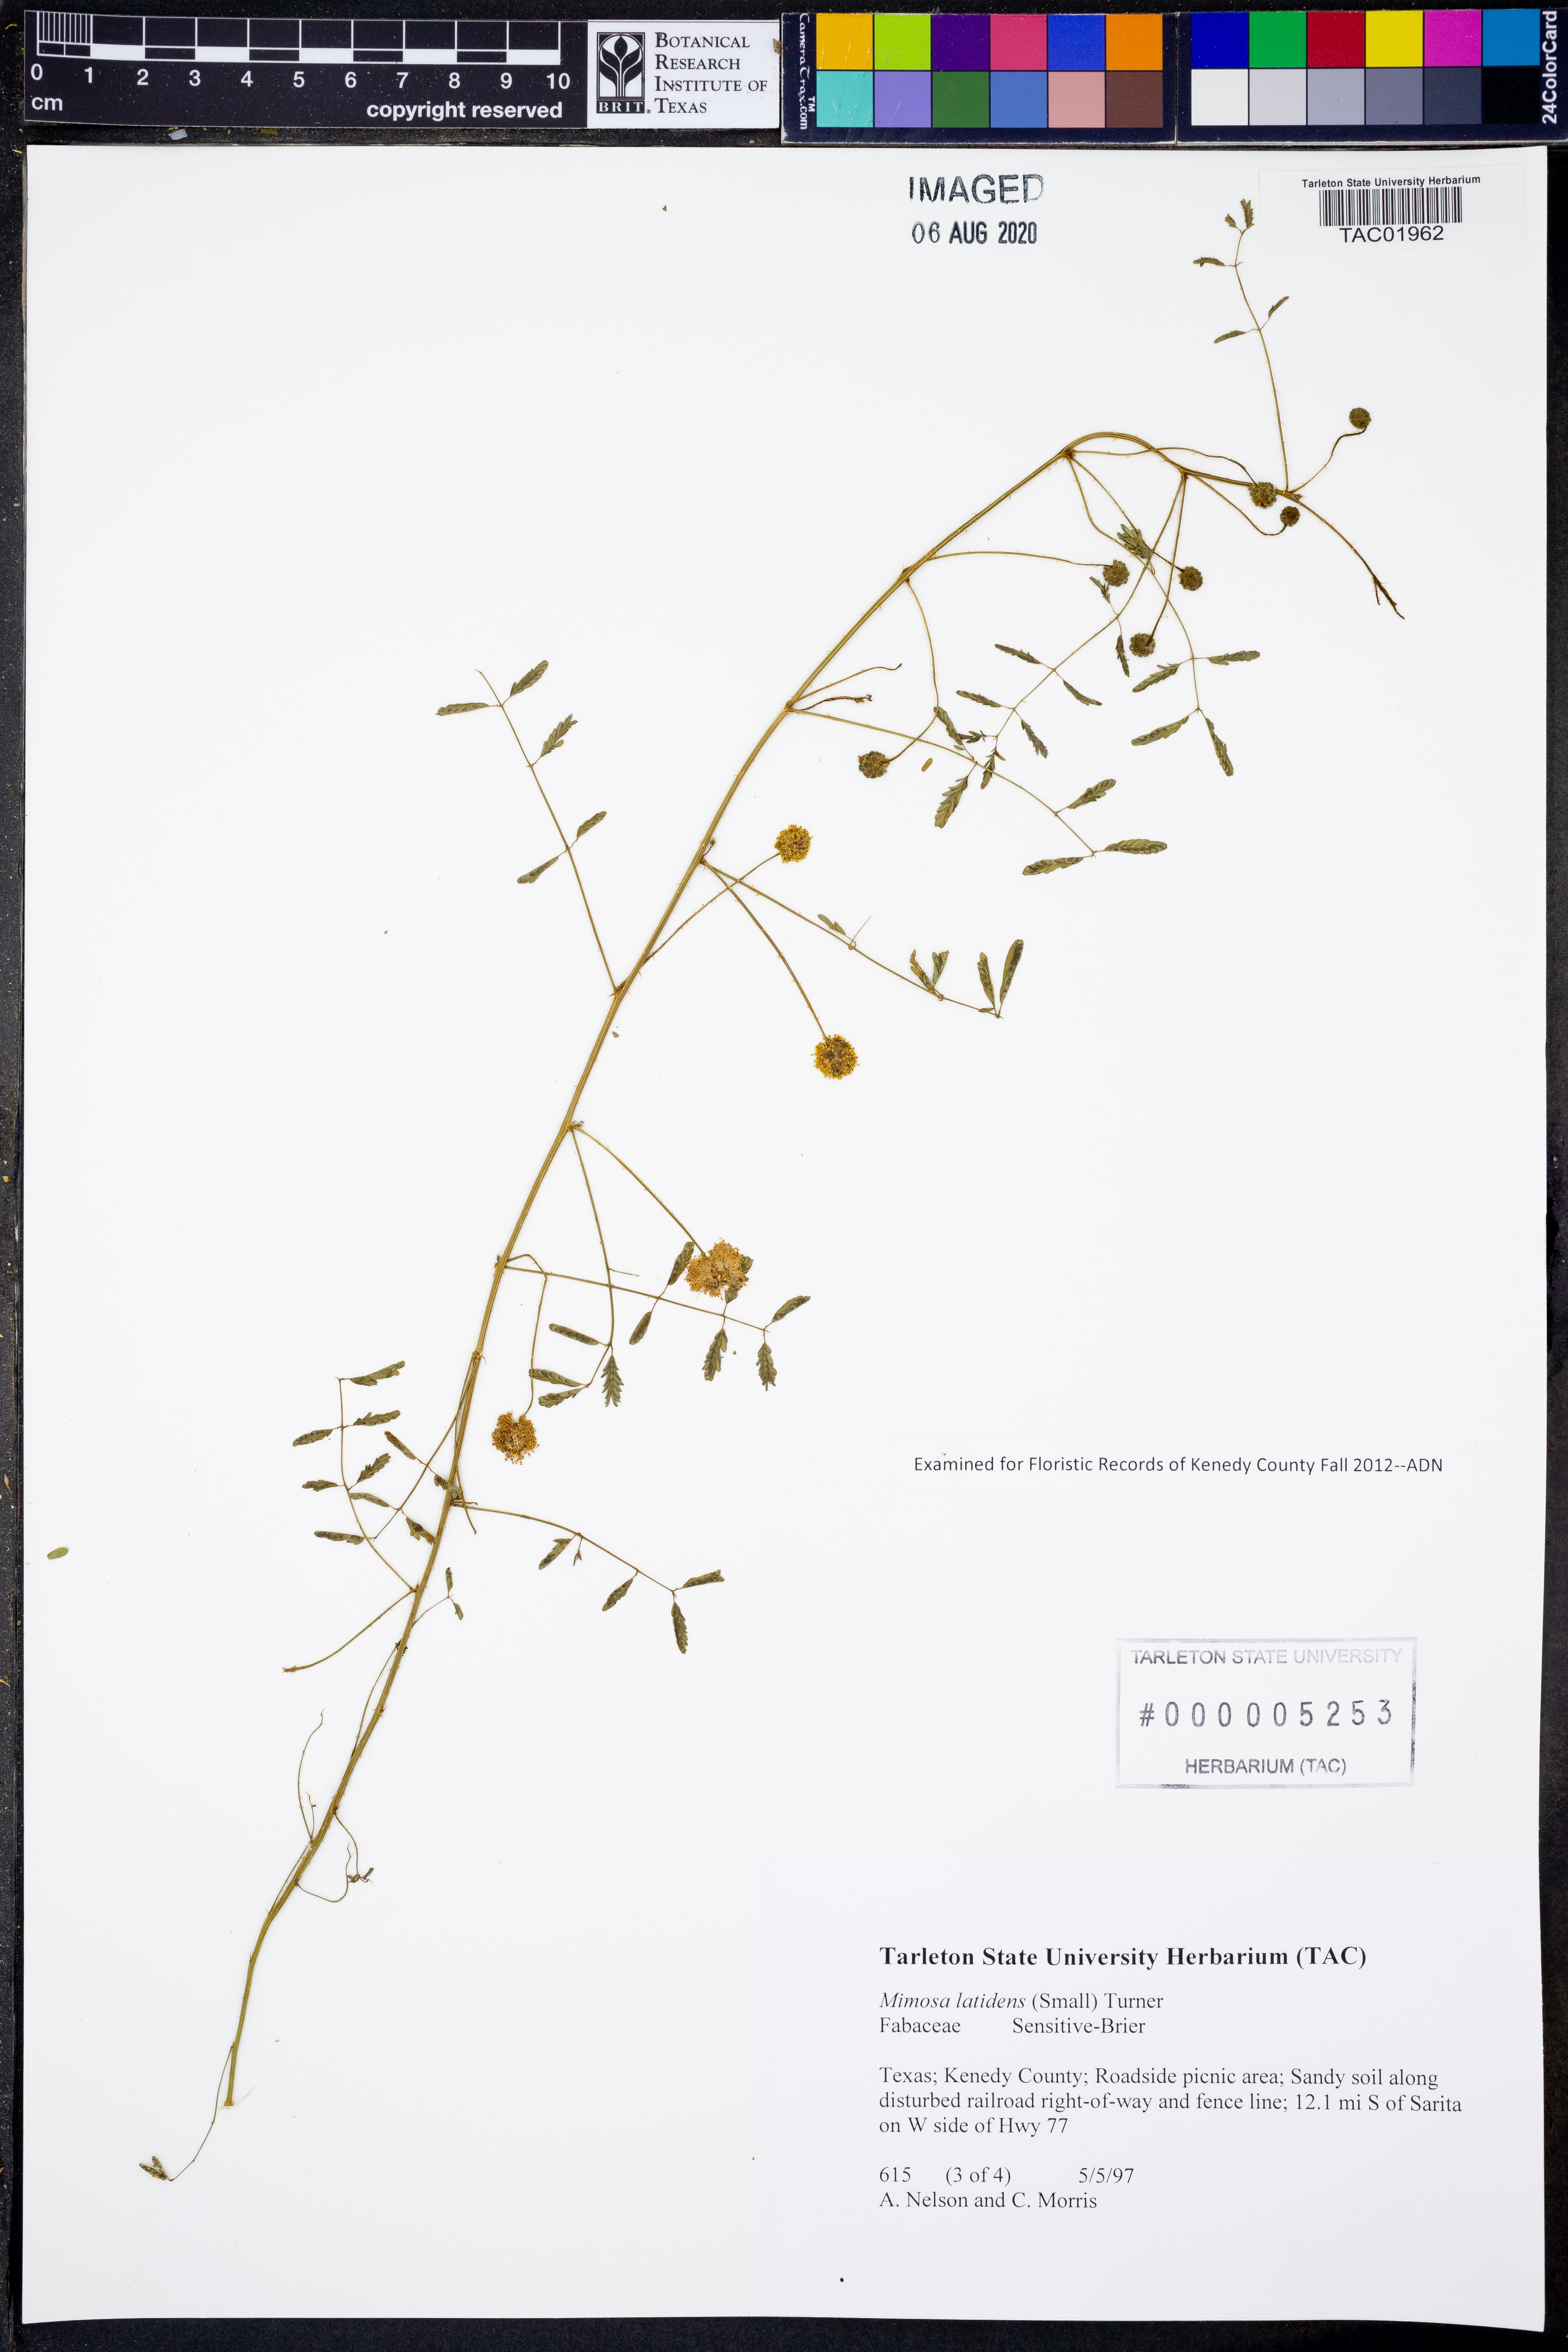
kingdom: Plantae
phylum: Tracheophyta
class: Magnoliopsida
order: Fabales
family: Fabaceae
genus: Mimosa
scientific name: Mimosa latidens
